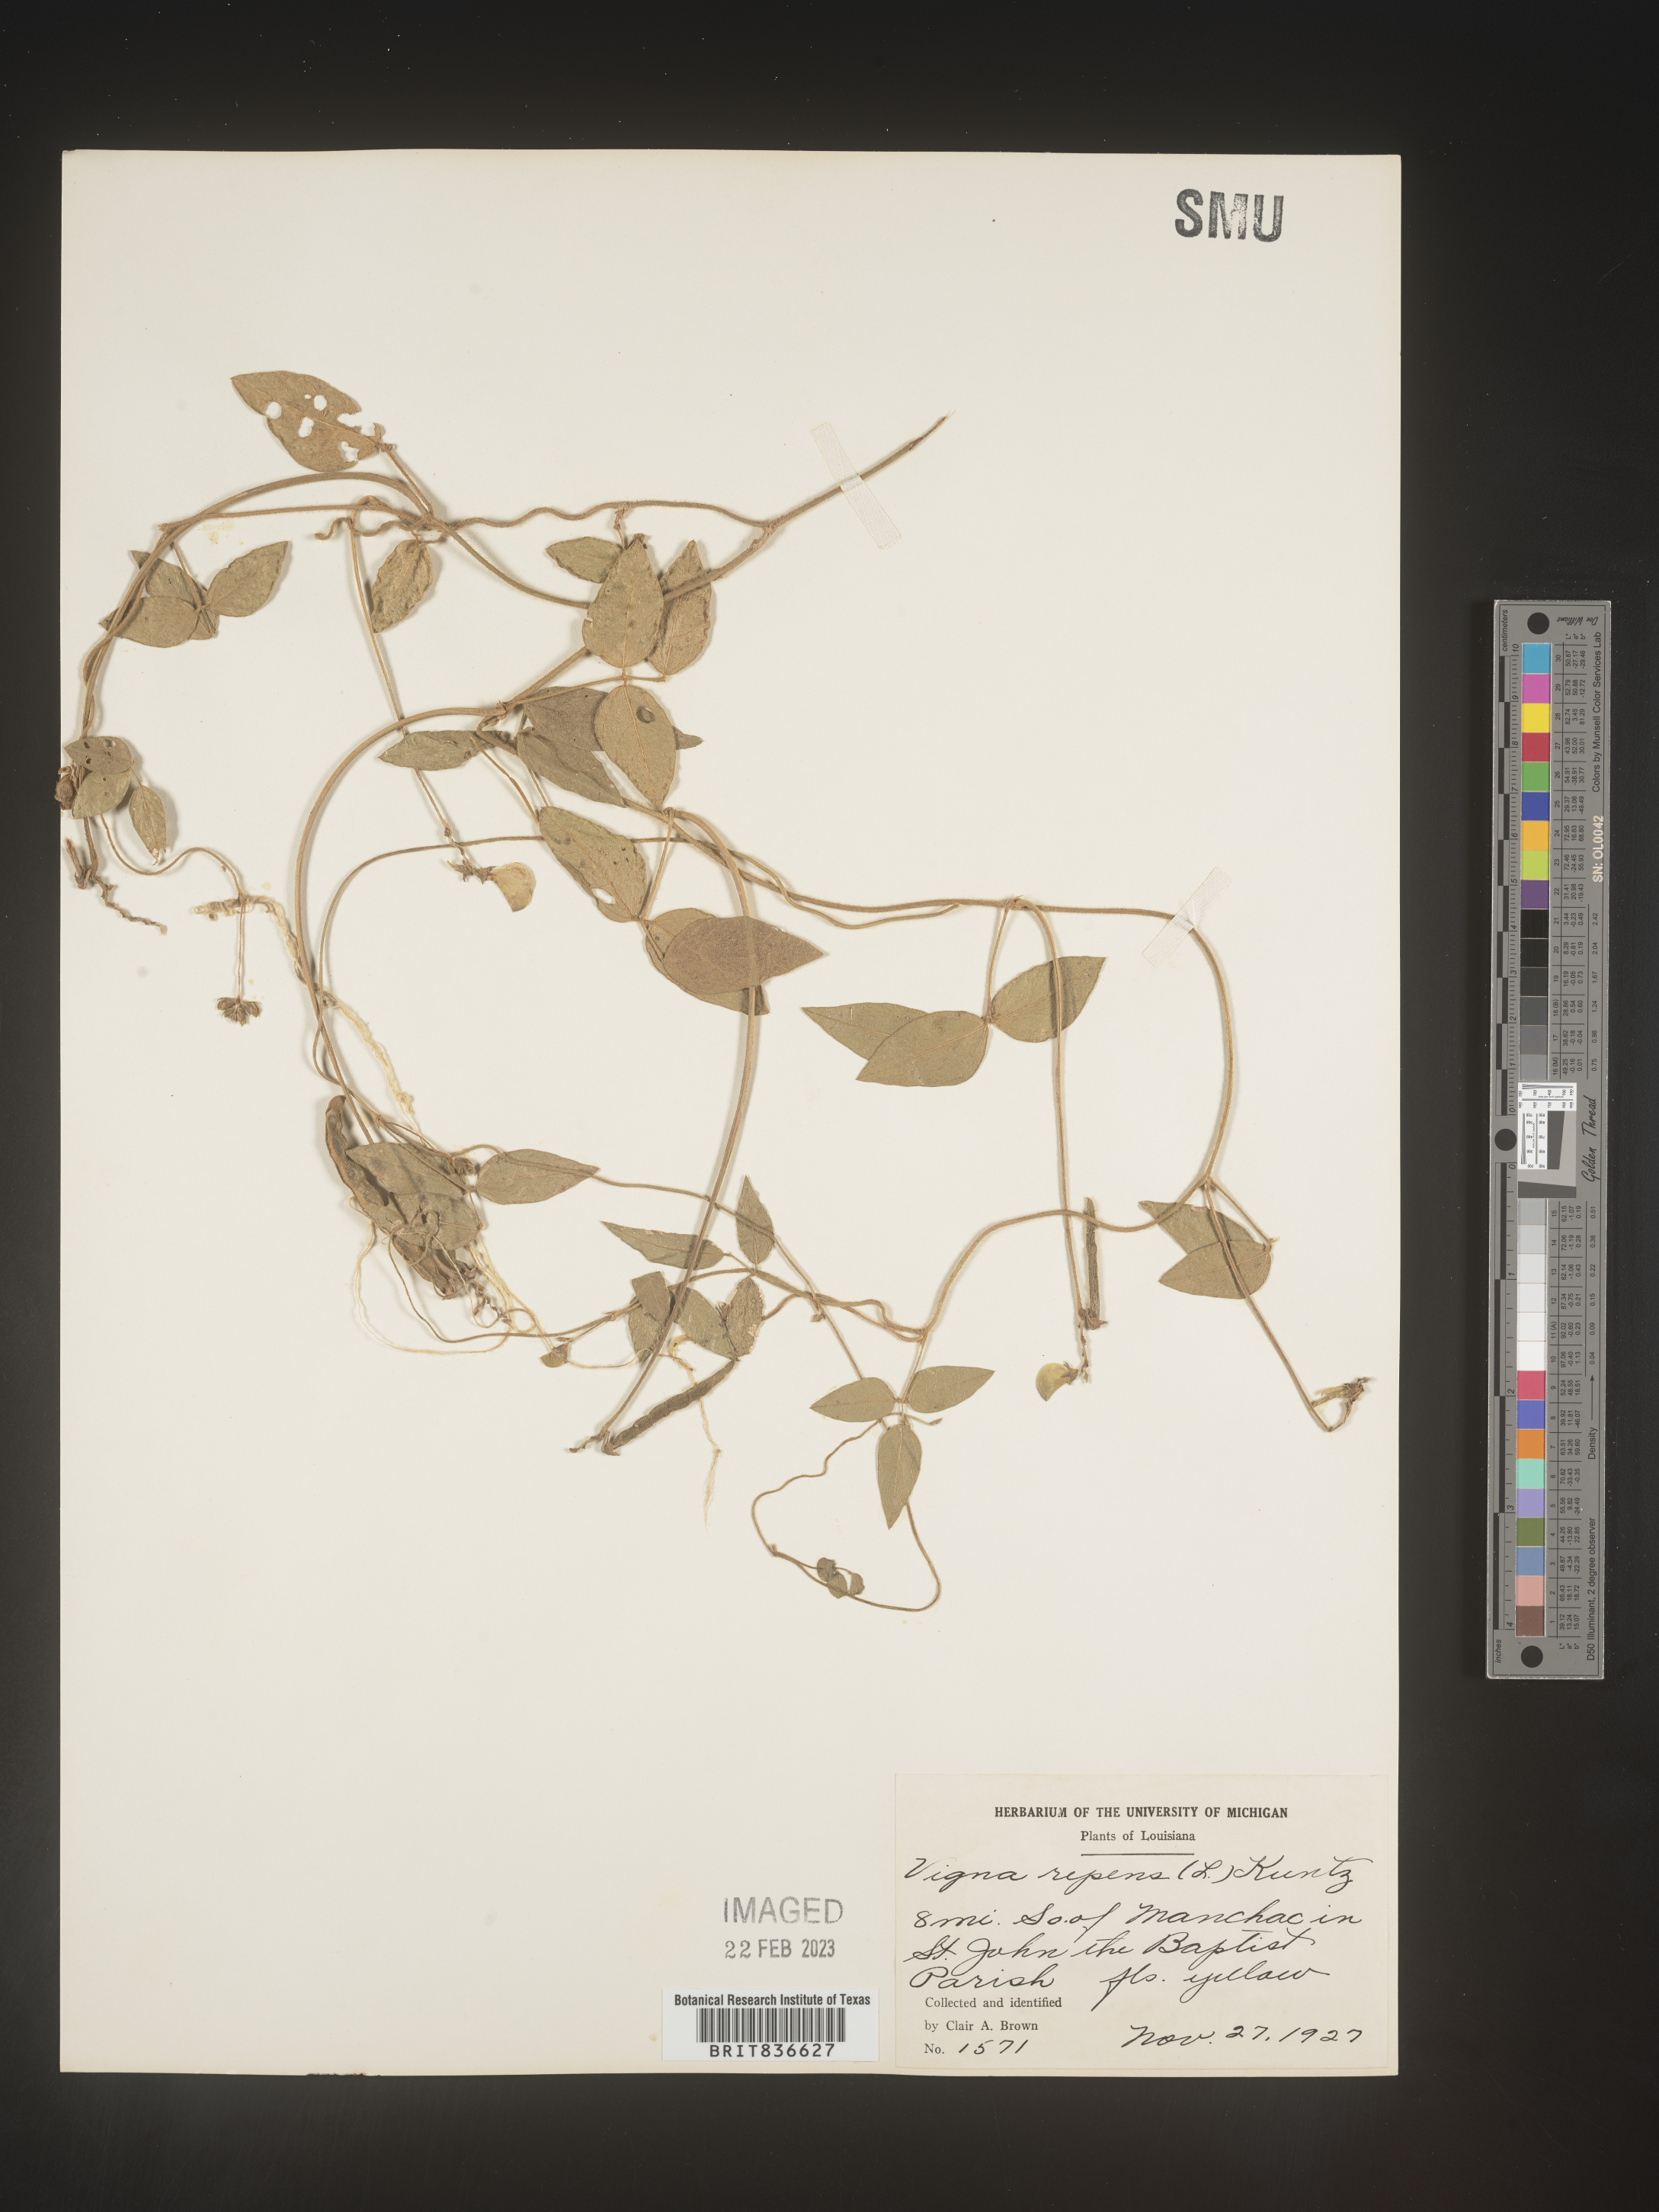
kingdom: Plantae
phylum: Tracheophyta
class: Magnoliopsida
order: Fabales
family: Fabaceae
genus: Vigna
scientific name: Vigna
